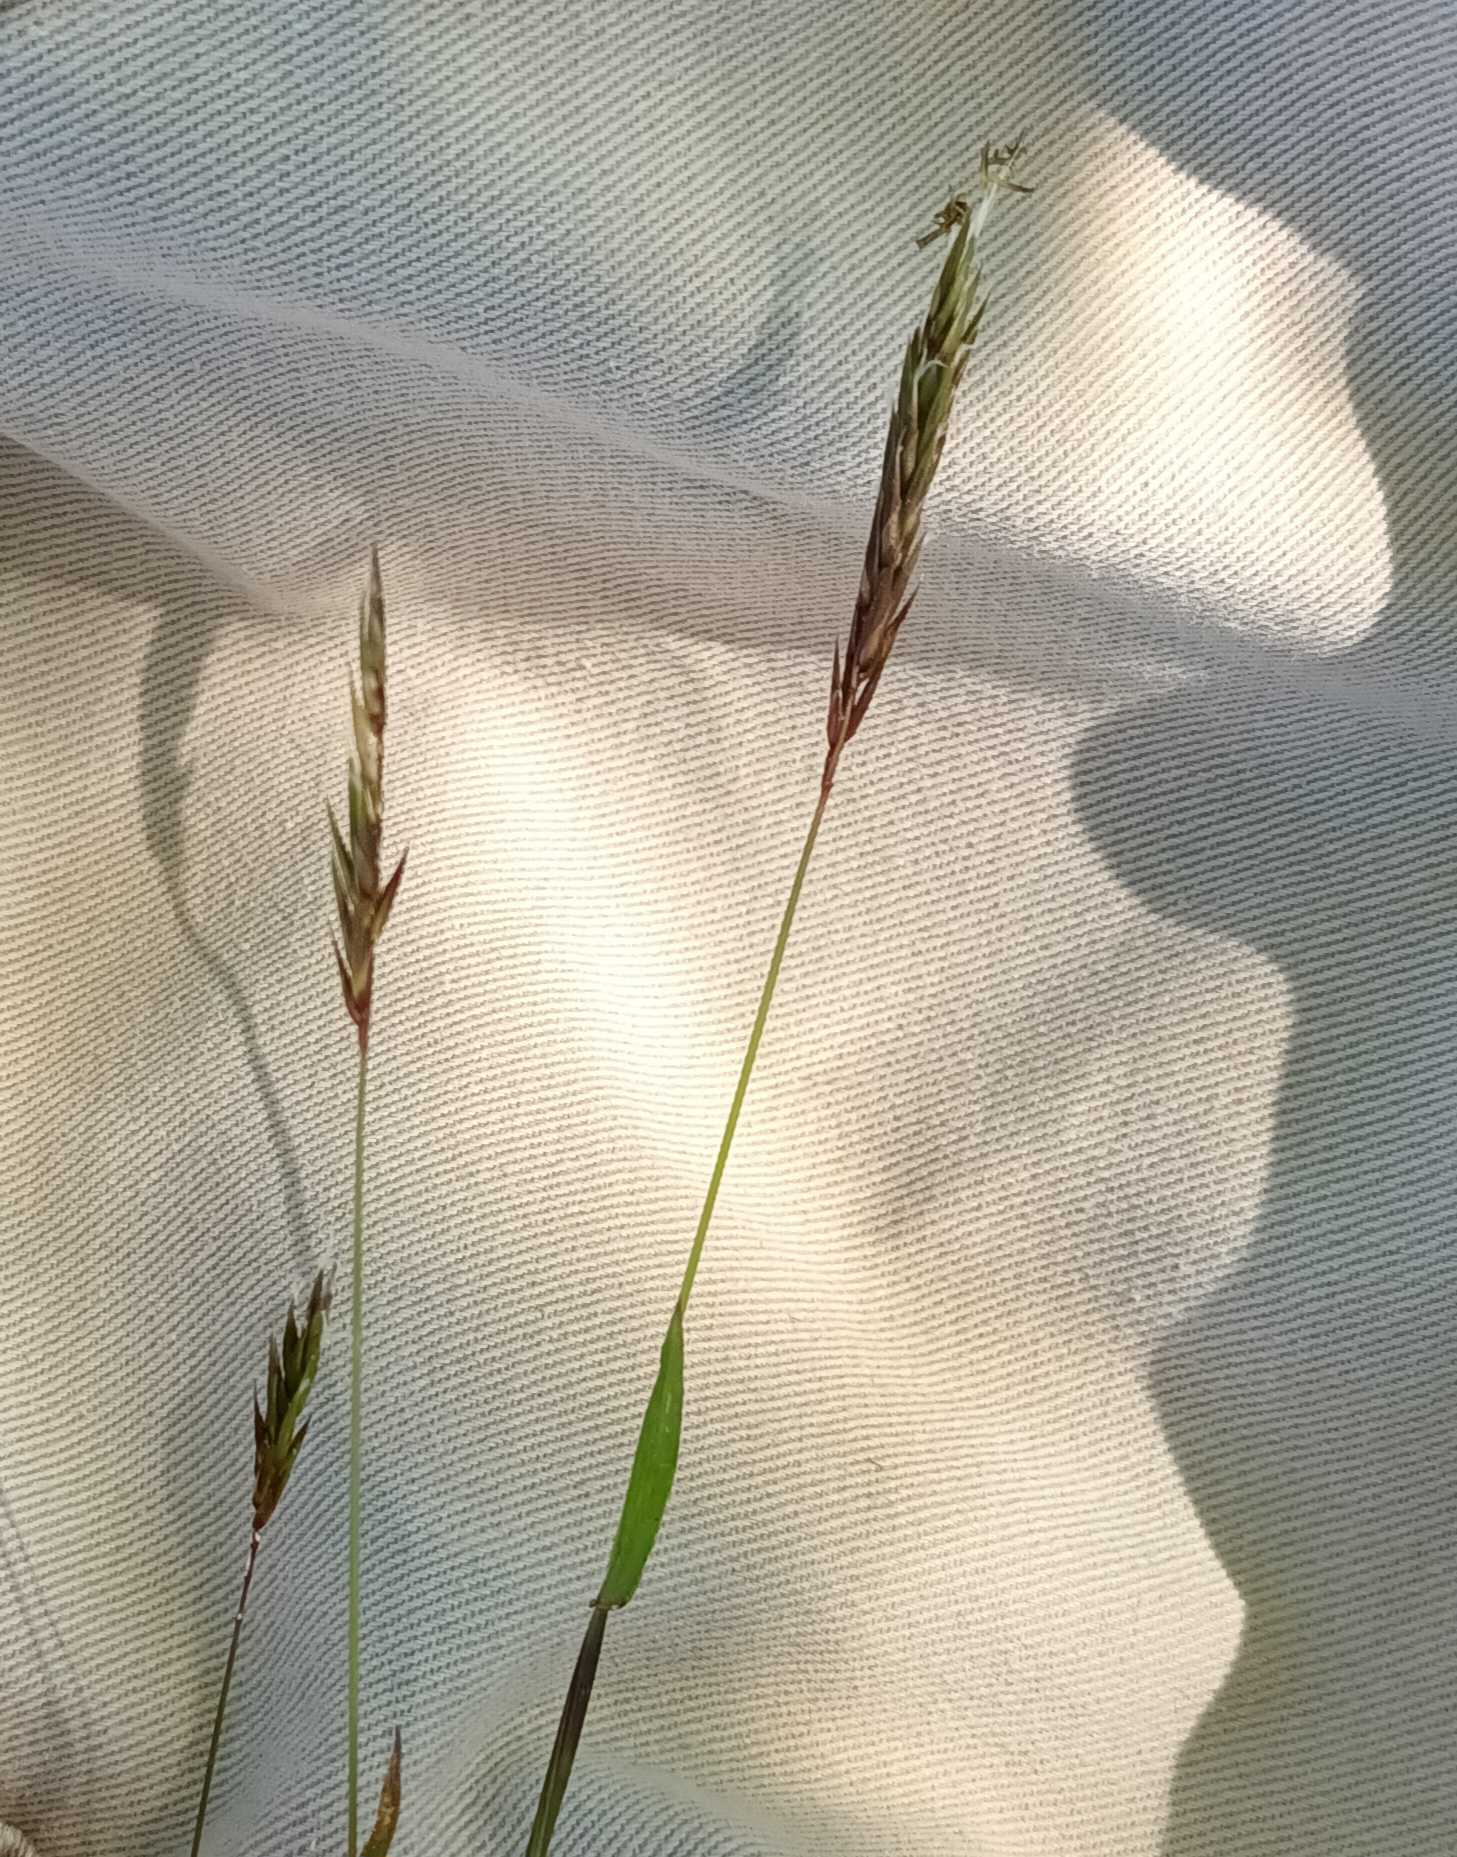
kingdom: Plantae
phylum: Tracheophyta
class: Liliopsida
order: Poales
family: Poaceae
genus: Anthoxanthum
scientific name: Anthoxanthum odoratum
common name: Vellugtende gulaks
